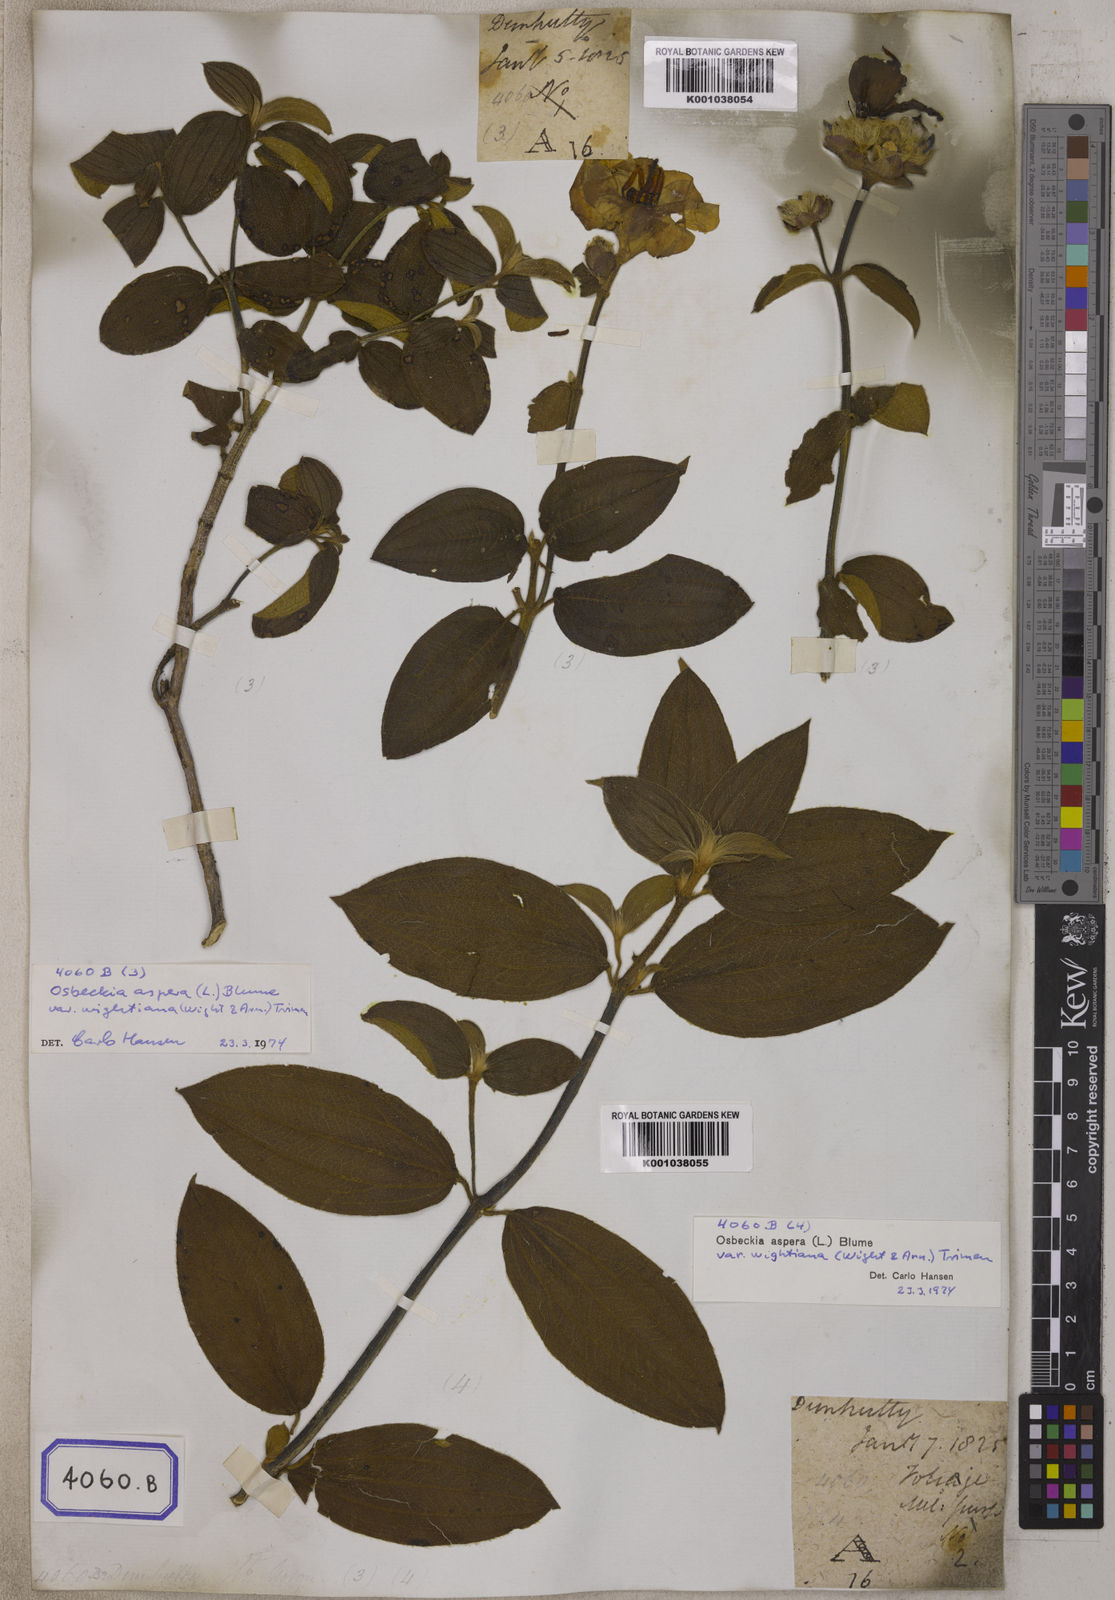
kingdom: Plantae
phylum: Tracheophyta
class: Magnoliopsida
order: Myrtales
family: Melastomataceae
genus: Osbeckia
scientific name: Osbeckia
